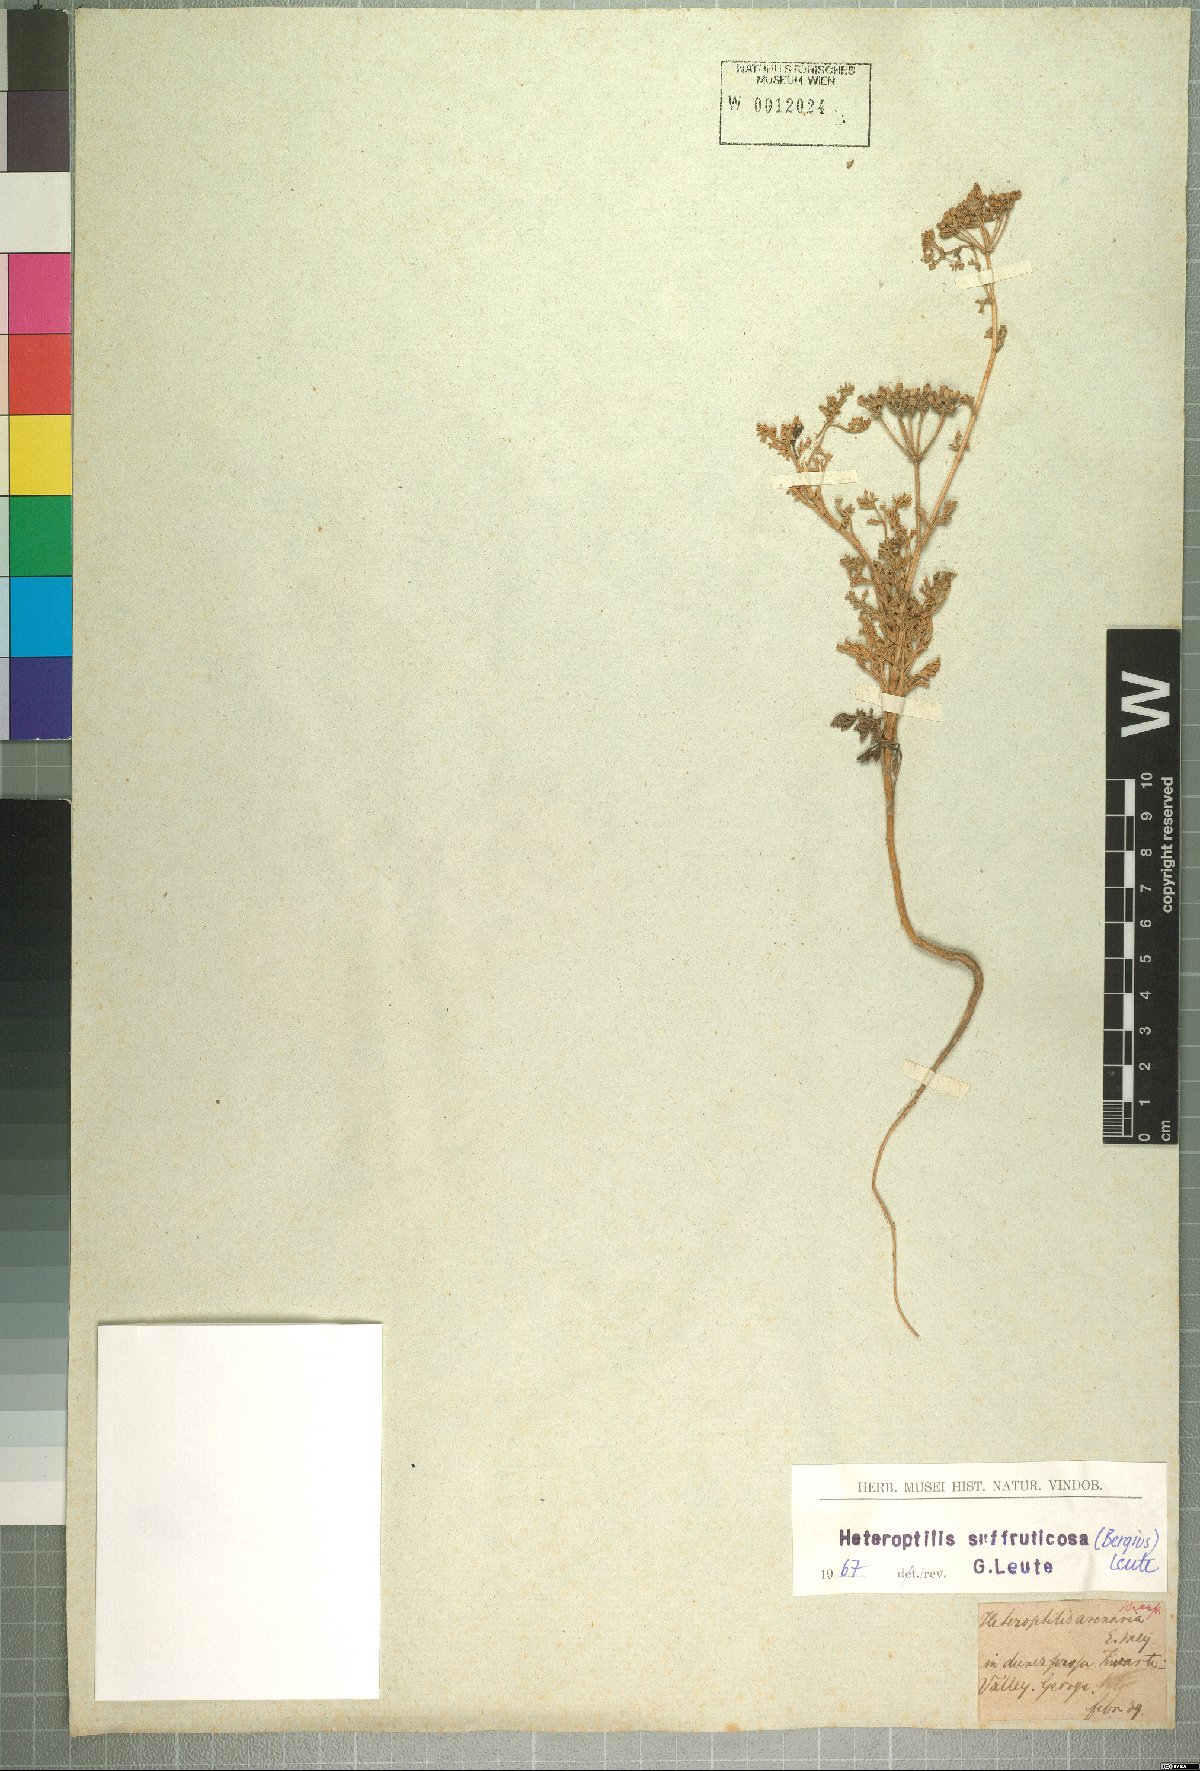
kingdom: Plantae
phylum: Tracheophyta
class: Magnoliopsida
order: Apiales
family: Apiaceae
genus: Dasispermum
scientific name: Dasispermum suffruticosum
